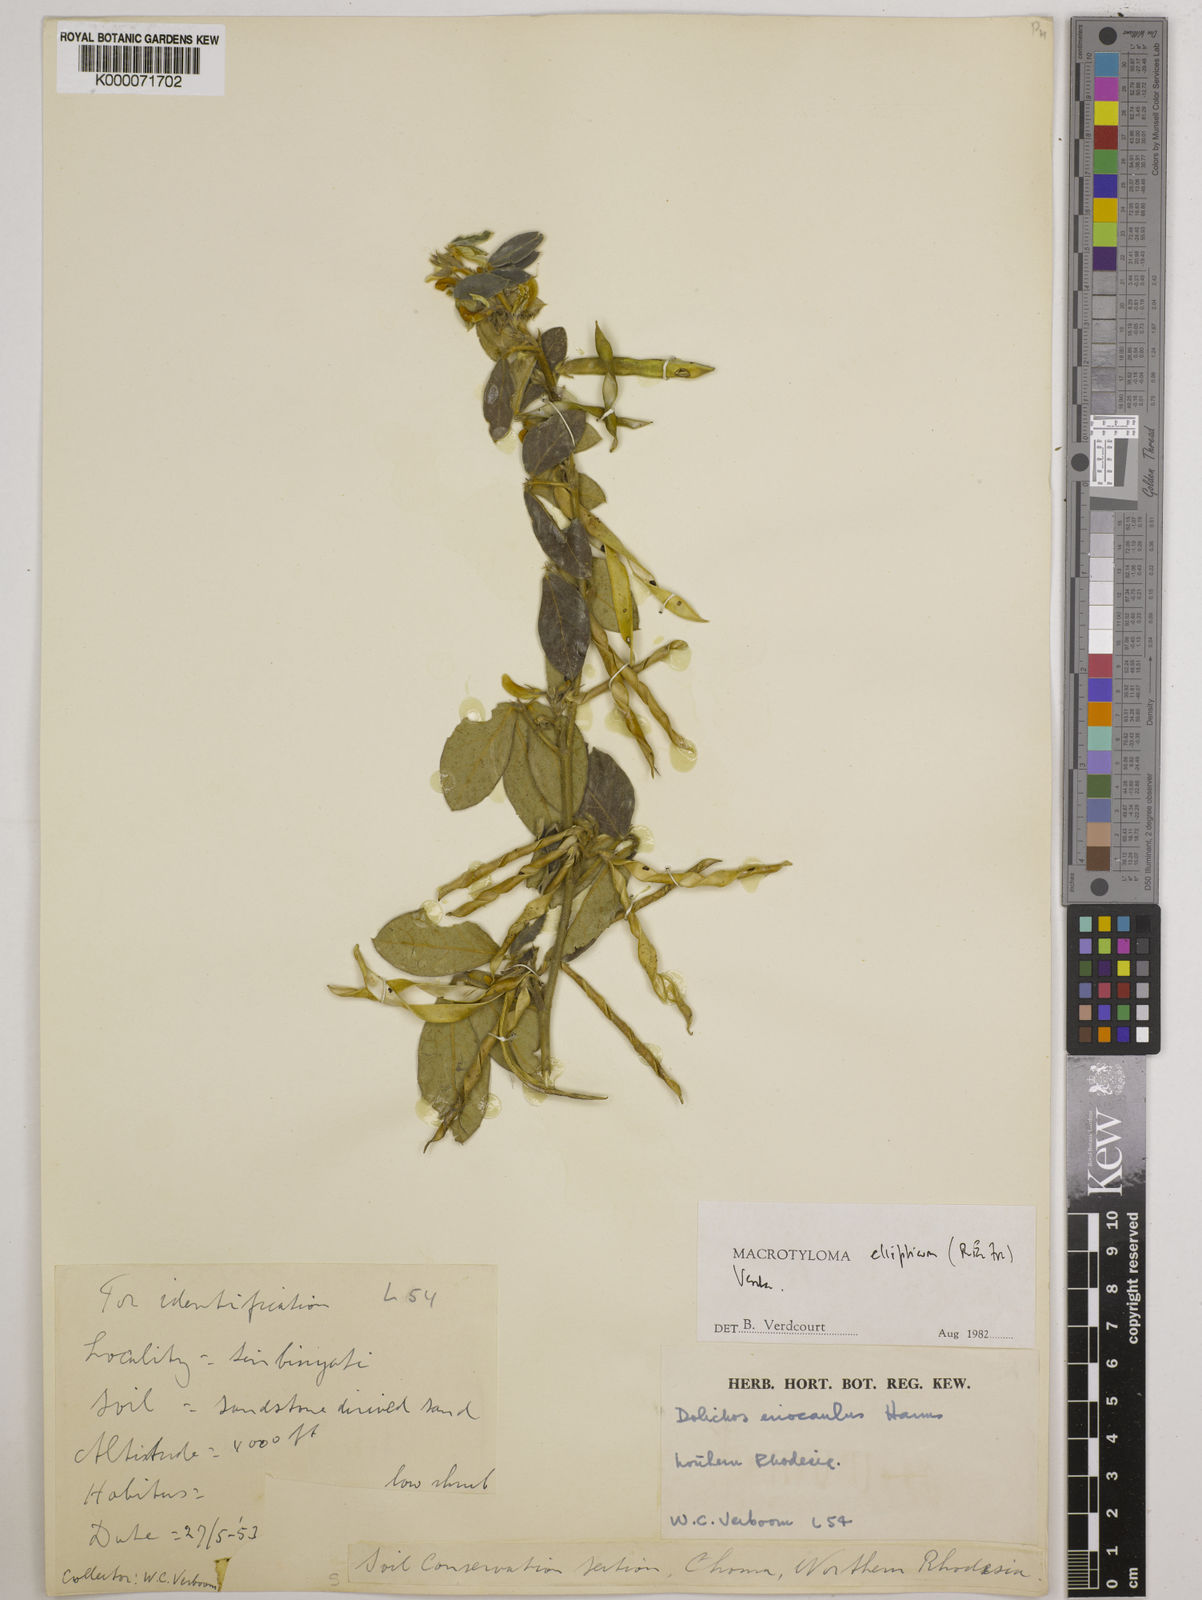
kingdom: Plantae
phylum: Tracheophyta
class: Magnoliopsida
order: Fabales
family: Fabaceae
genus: Macrotyloma
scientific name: Macrotyloma ellipticum
